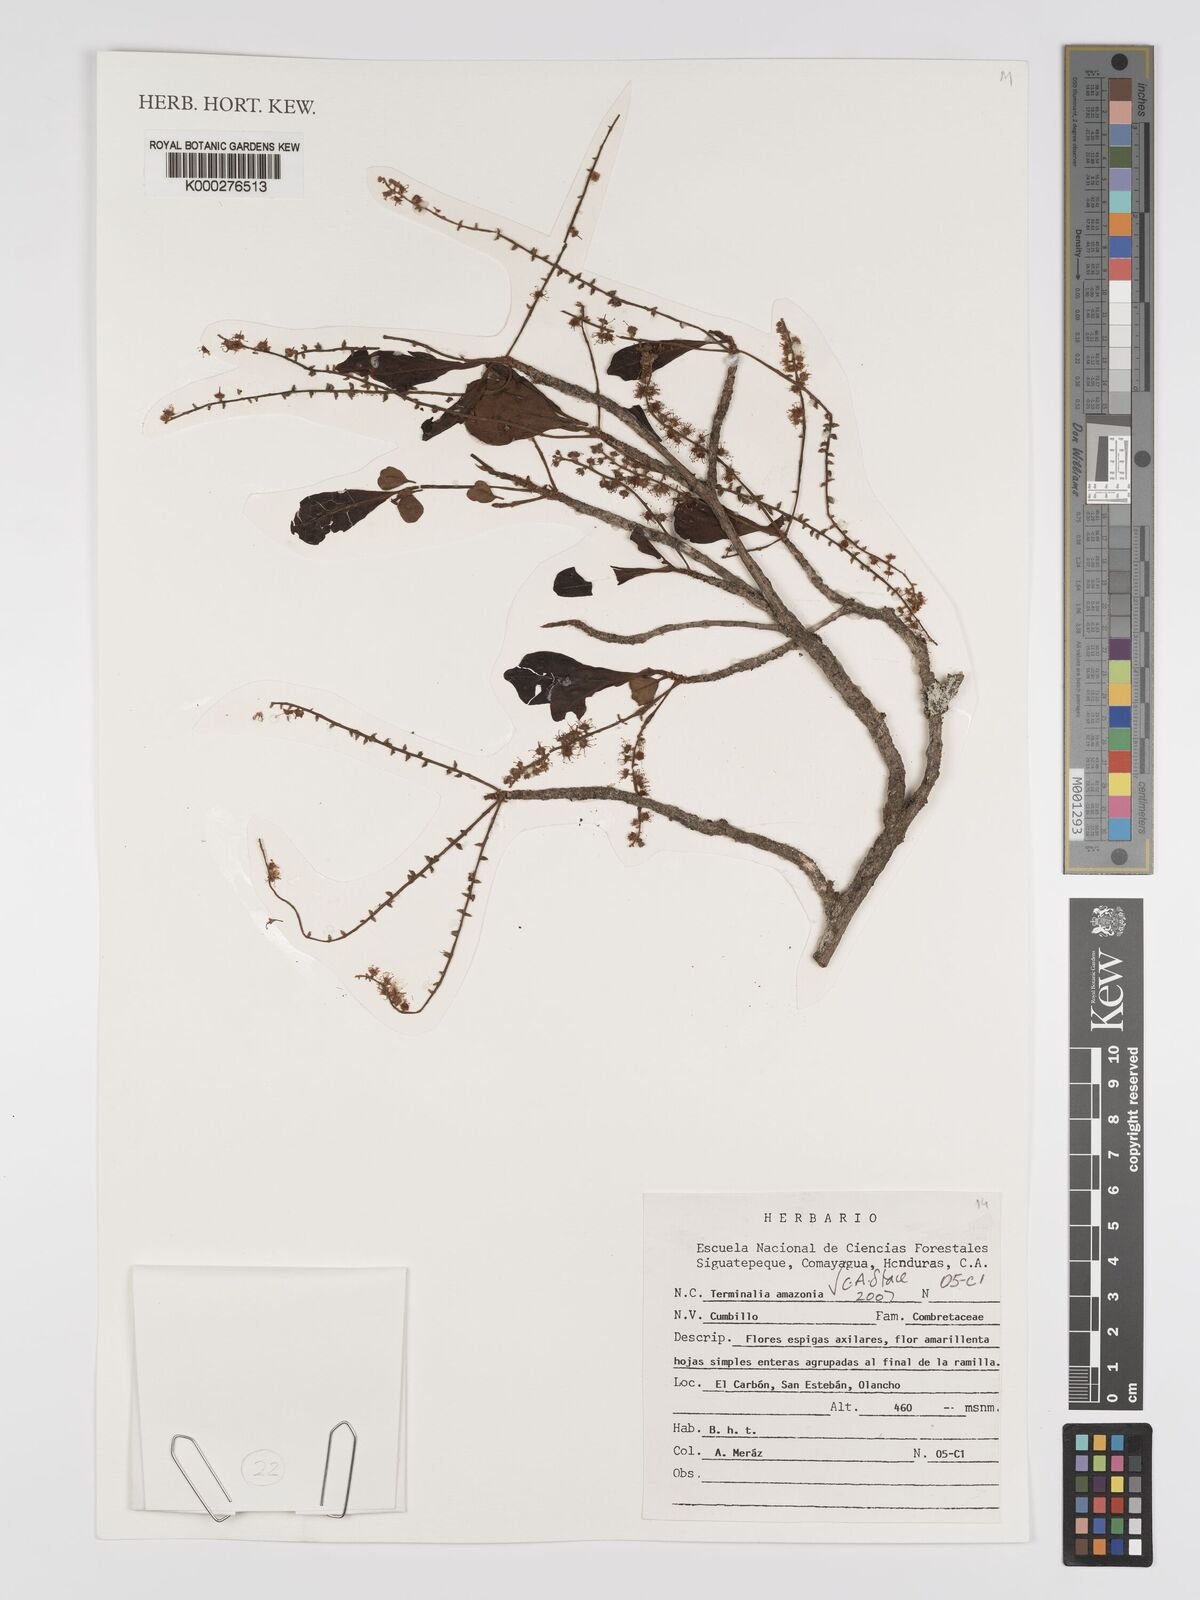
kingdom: Plantae
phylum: Tracheophyta
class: Magnoliopsida
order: Myrtales
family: Combretaceae
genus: Terminalia
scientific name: Terminalia
